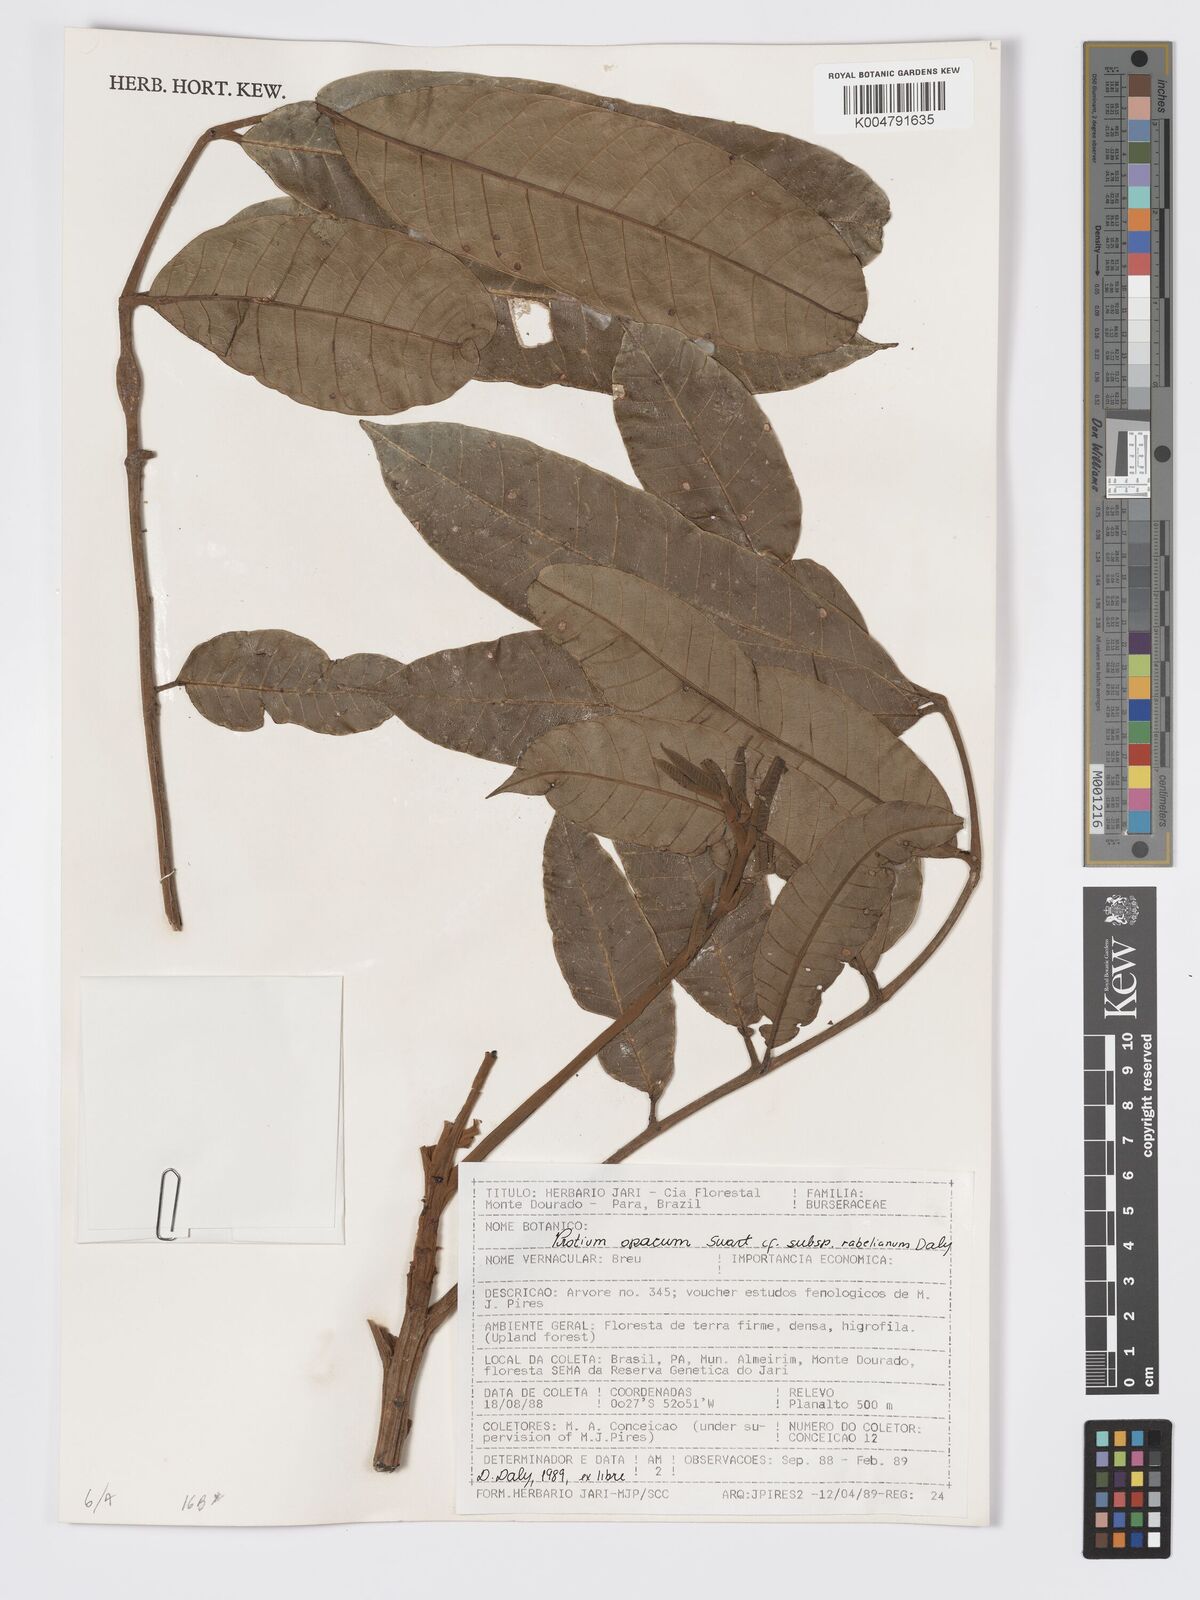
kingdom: Plantae
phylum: Tracheophyta
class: Magnoliopsida
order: Sapindales
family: Burseraceae
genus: Protium
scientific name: Protium opacum
